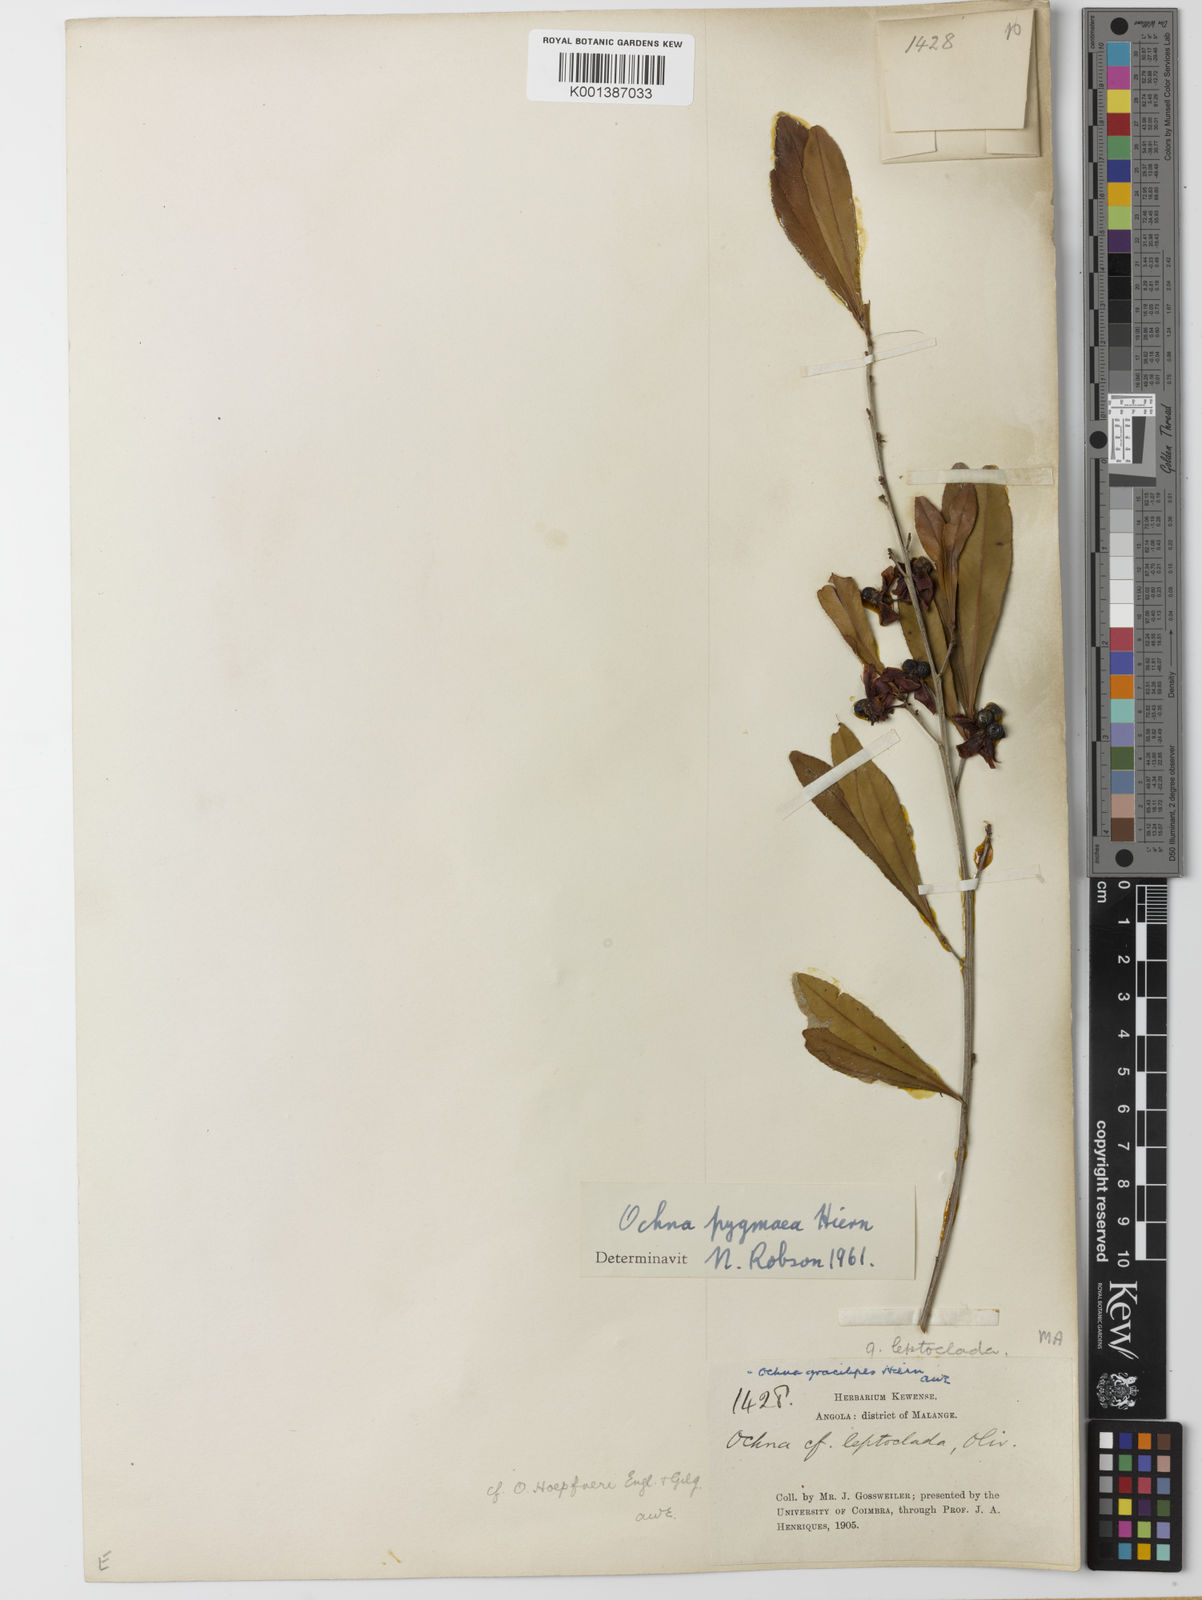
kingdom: Plantae
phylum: Tracheophyta
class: Magnoliopsida
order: Malpighiales
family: Ochnaceae
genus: Ochna
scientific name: Ochna pygmaea
